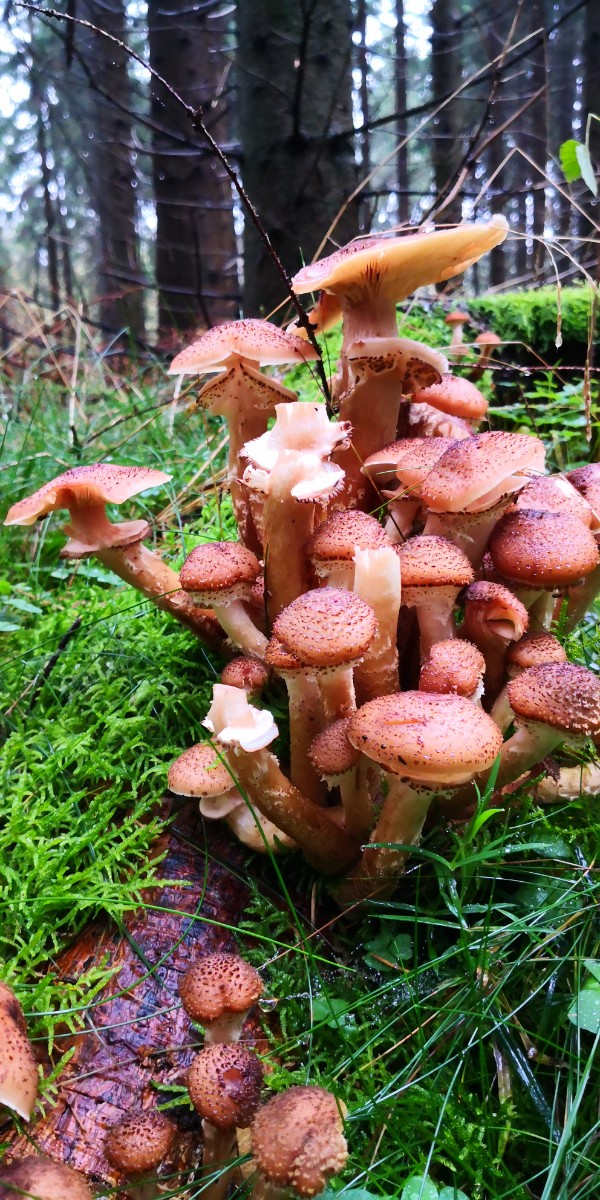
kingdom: Fungi
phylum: Basidiomycota
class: Agaricomycetes
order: Agaricales
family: Physalacriaceae
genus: Armillaria
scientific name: Armillaria ostoyae
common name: mørk honningsvamp
